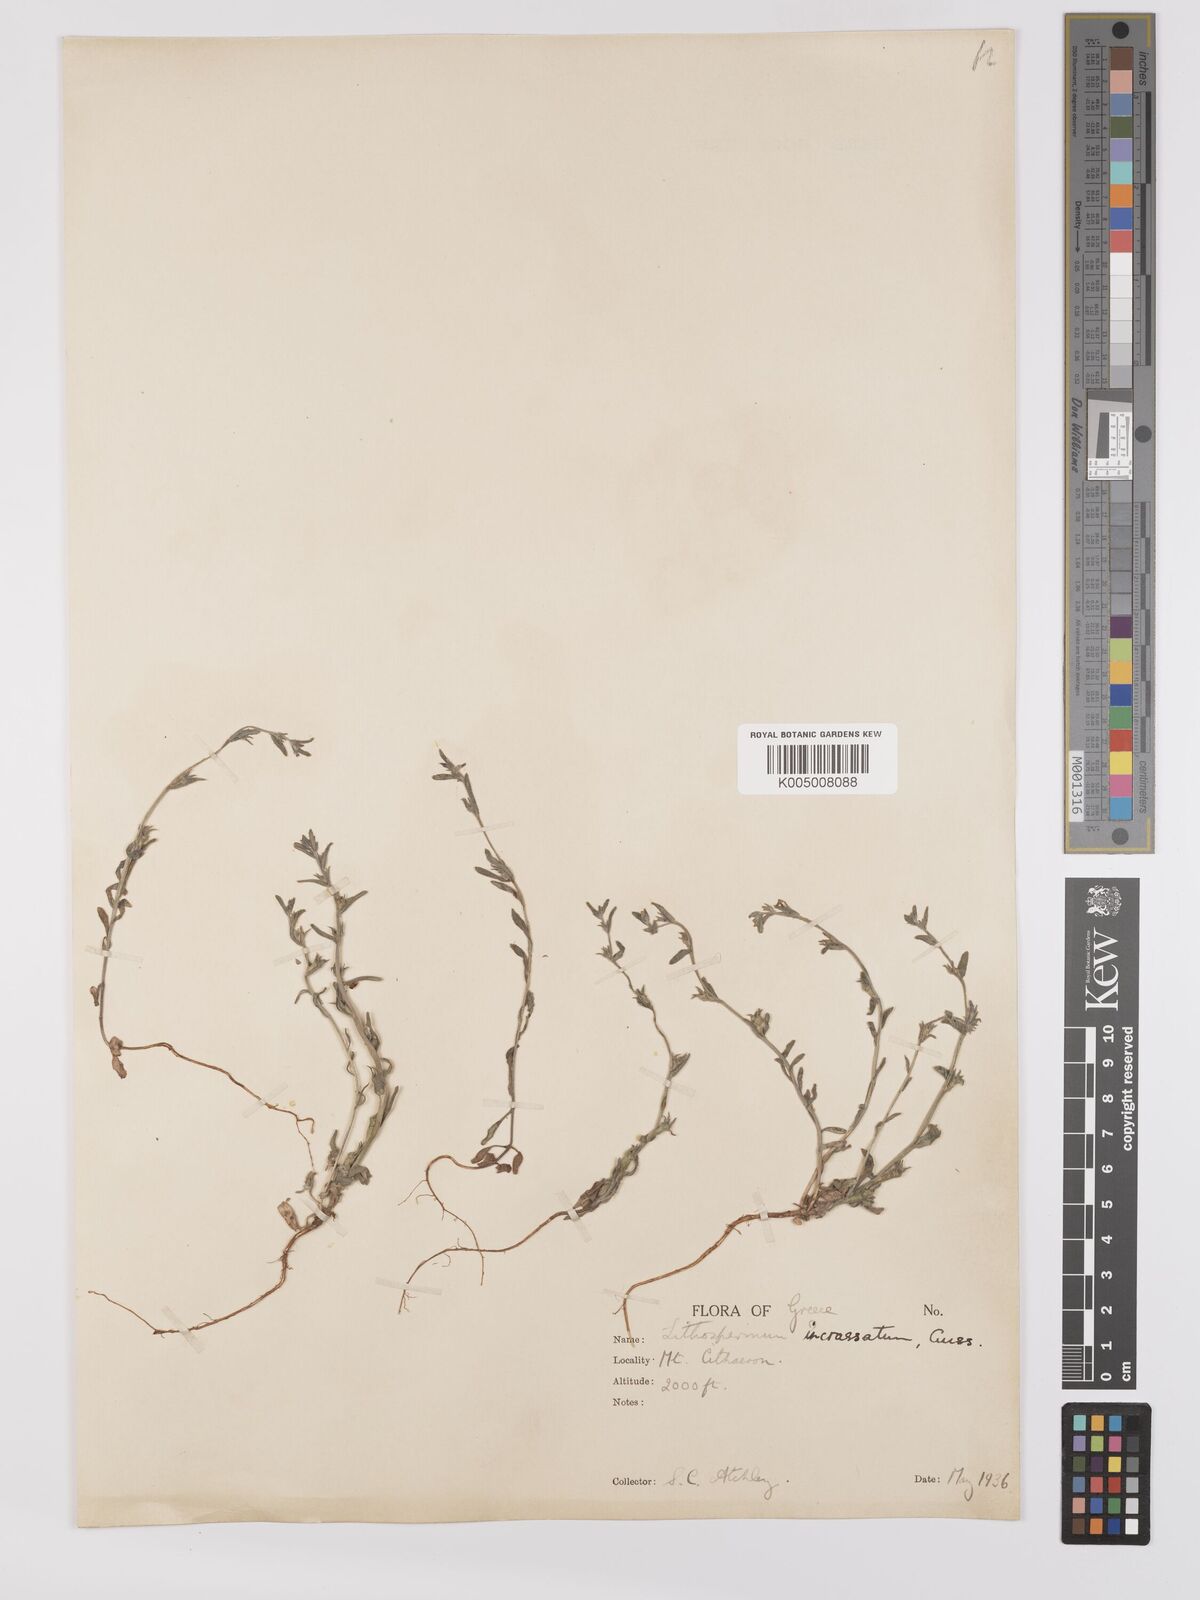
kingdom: Plantae
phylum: Tracheophyta
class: Magnoliopsida
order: Boraginales
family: Boraginaceae
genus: Buglossoides
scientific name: Buglossoides incrassata
